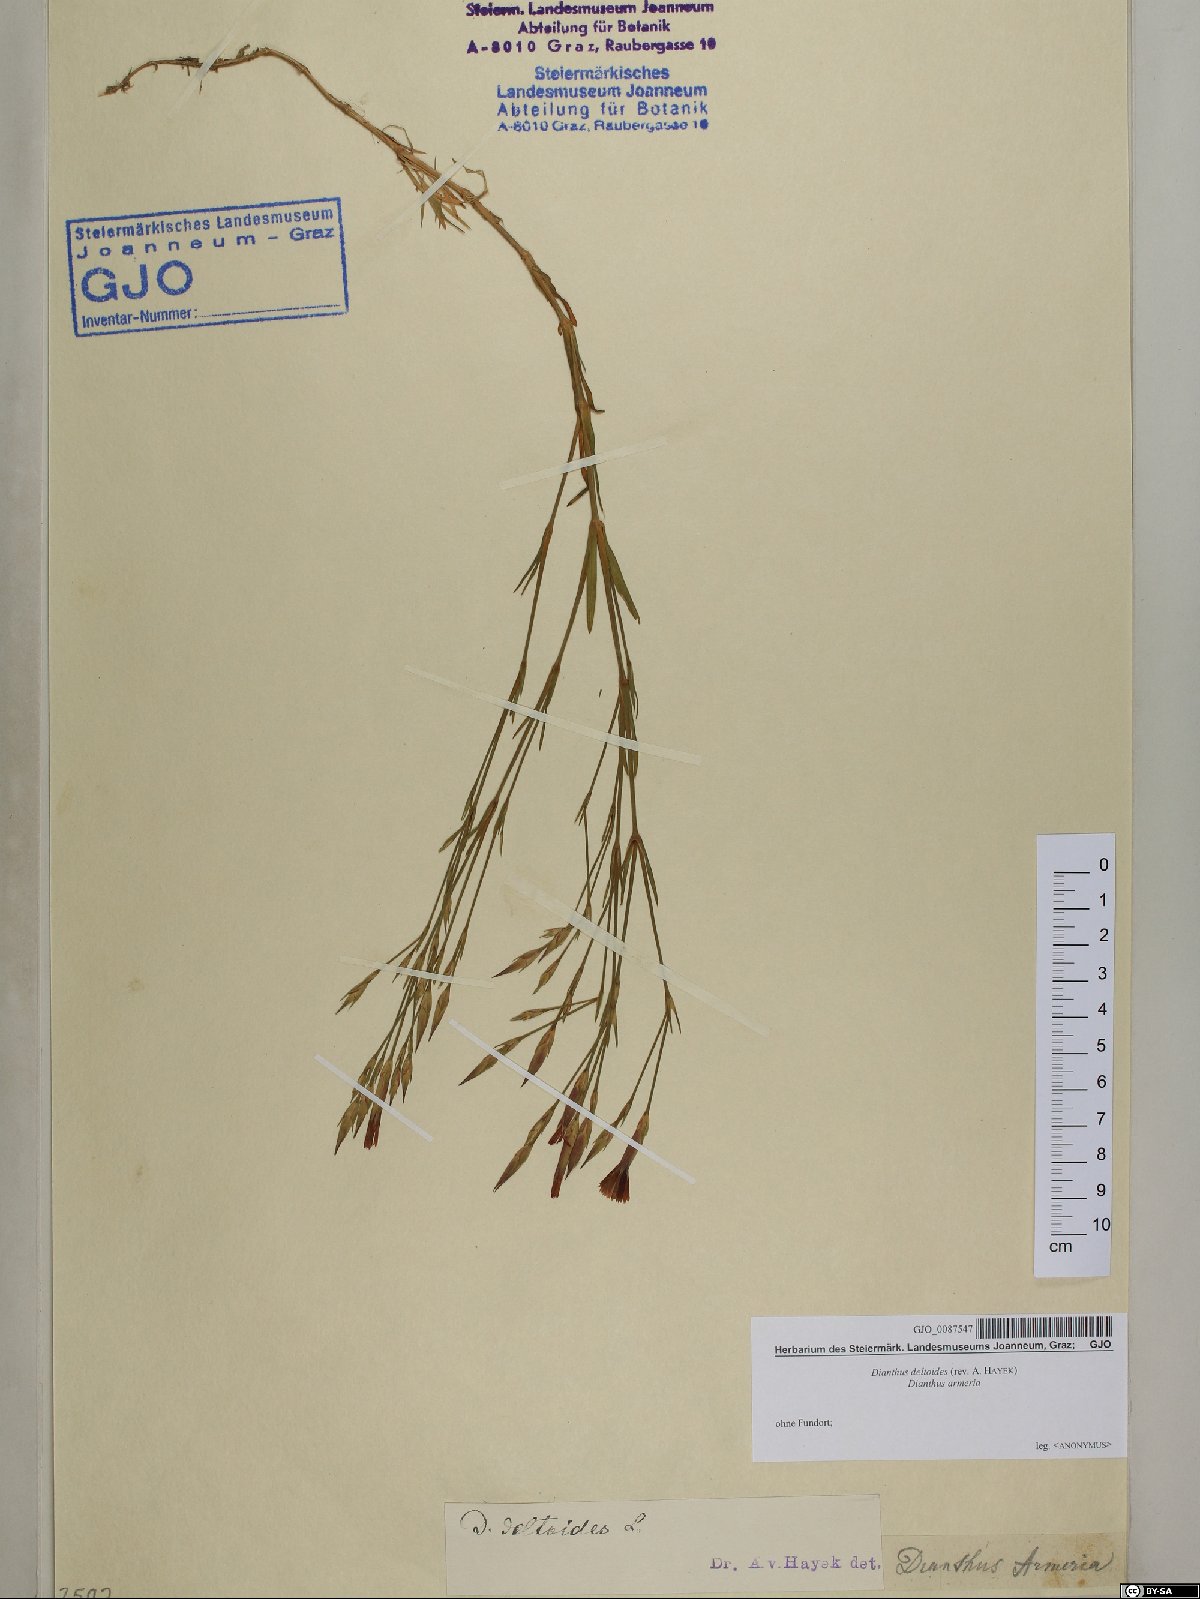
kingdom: Plantae
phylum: Tracheophyta
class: Magnoliopsida
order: Caryophyllales
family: Caryophyllaceae
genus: Dianthus
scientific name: Dianthus deltoides
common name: Maiden pink
